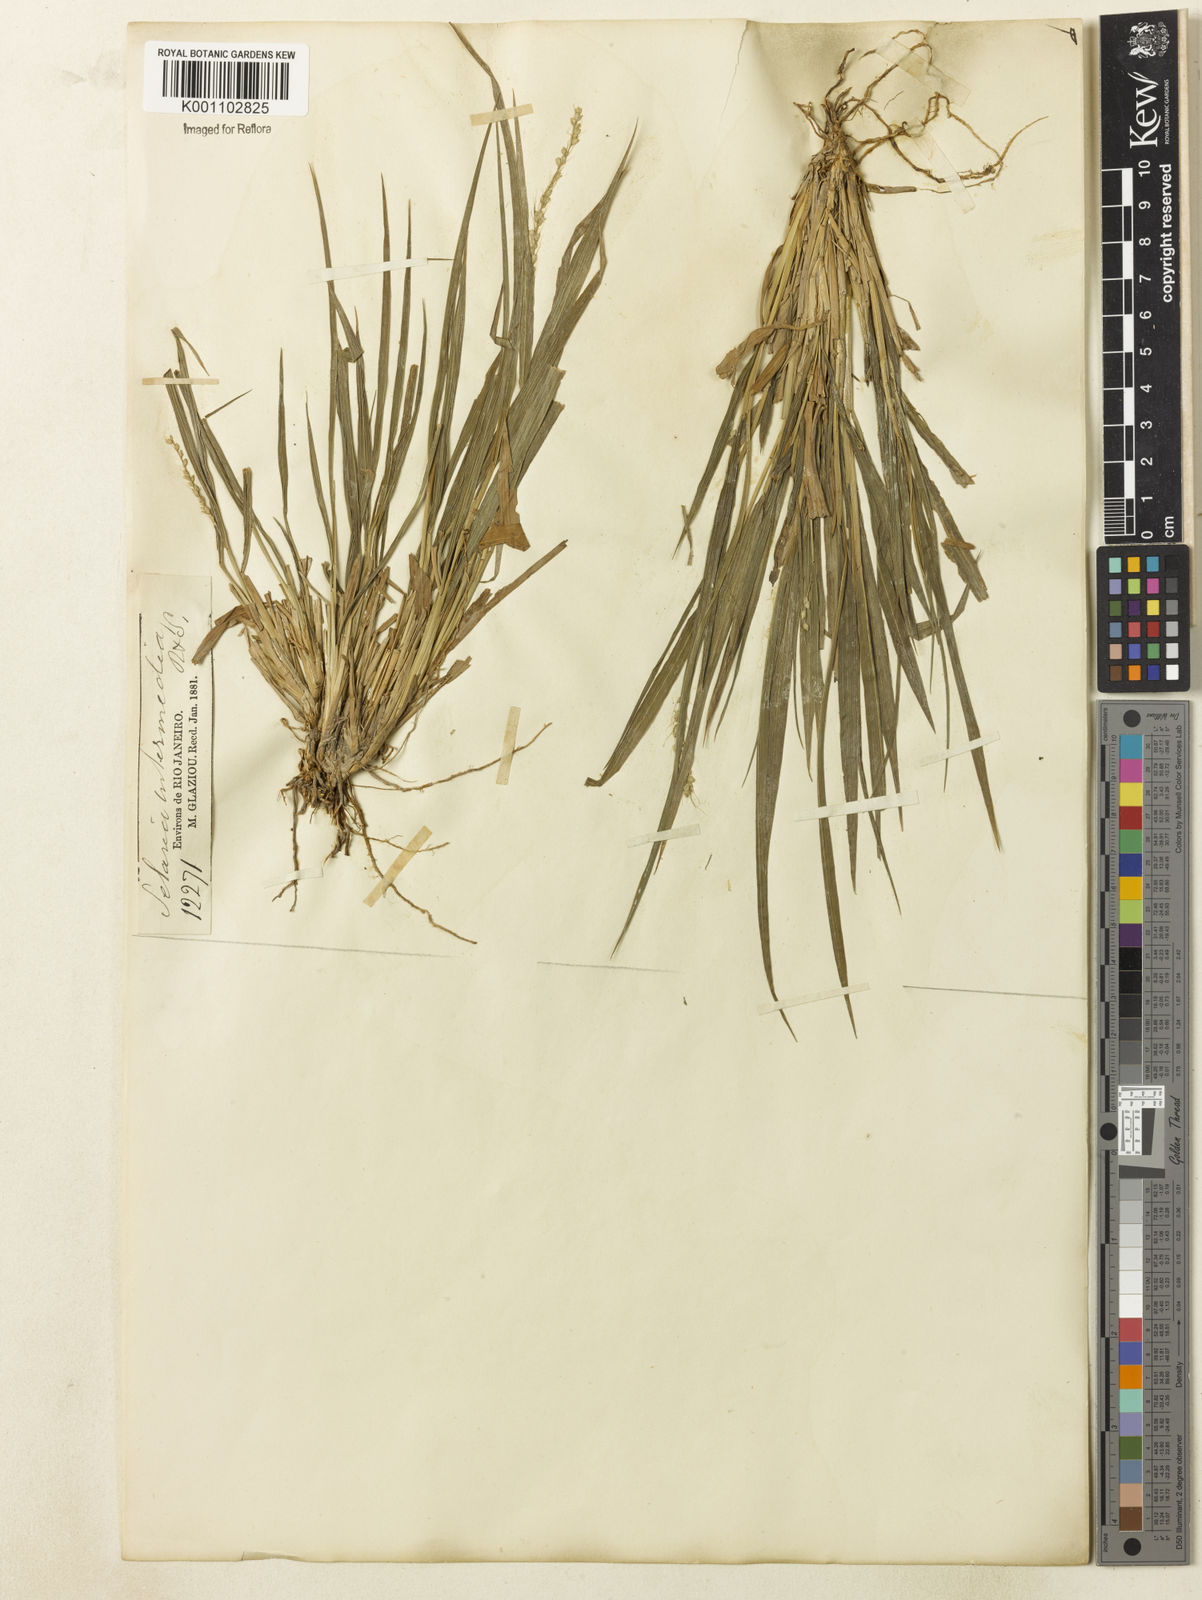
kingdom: Plantae
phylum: Tracheophyta
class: Liliopsida
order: Poales
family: Poaceae
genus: Setaria
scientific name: Setaria setosa
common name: West indies bristle grass
